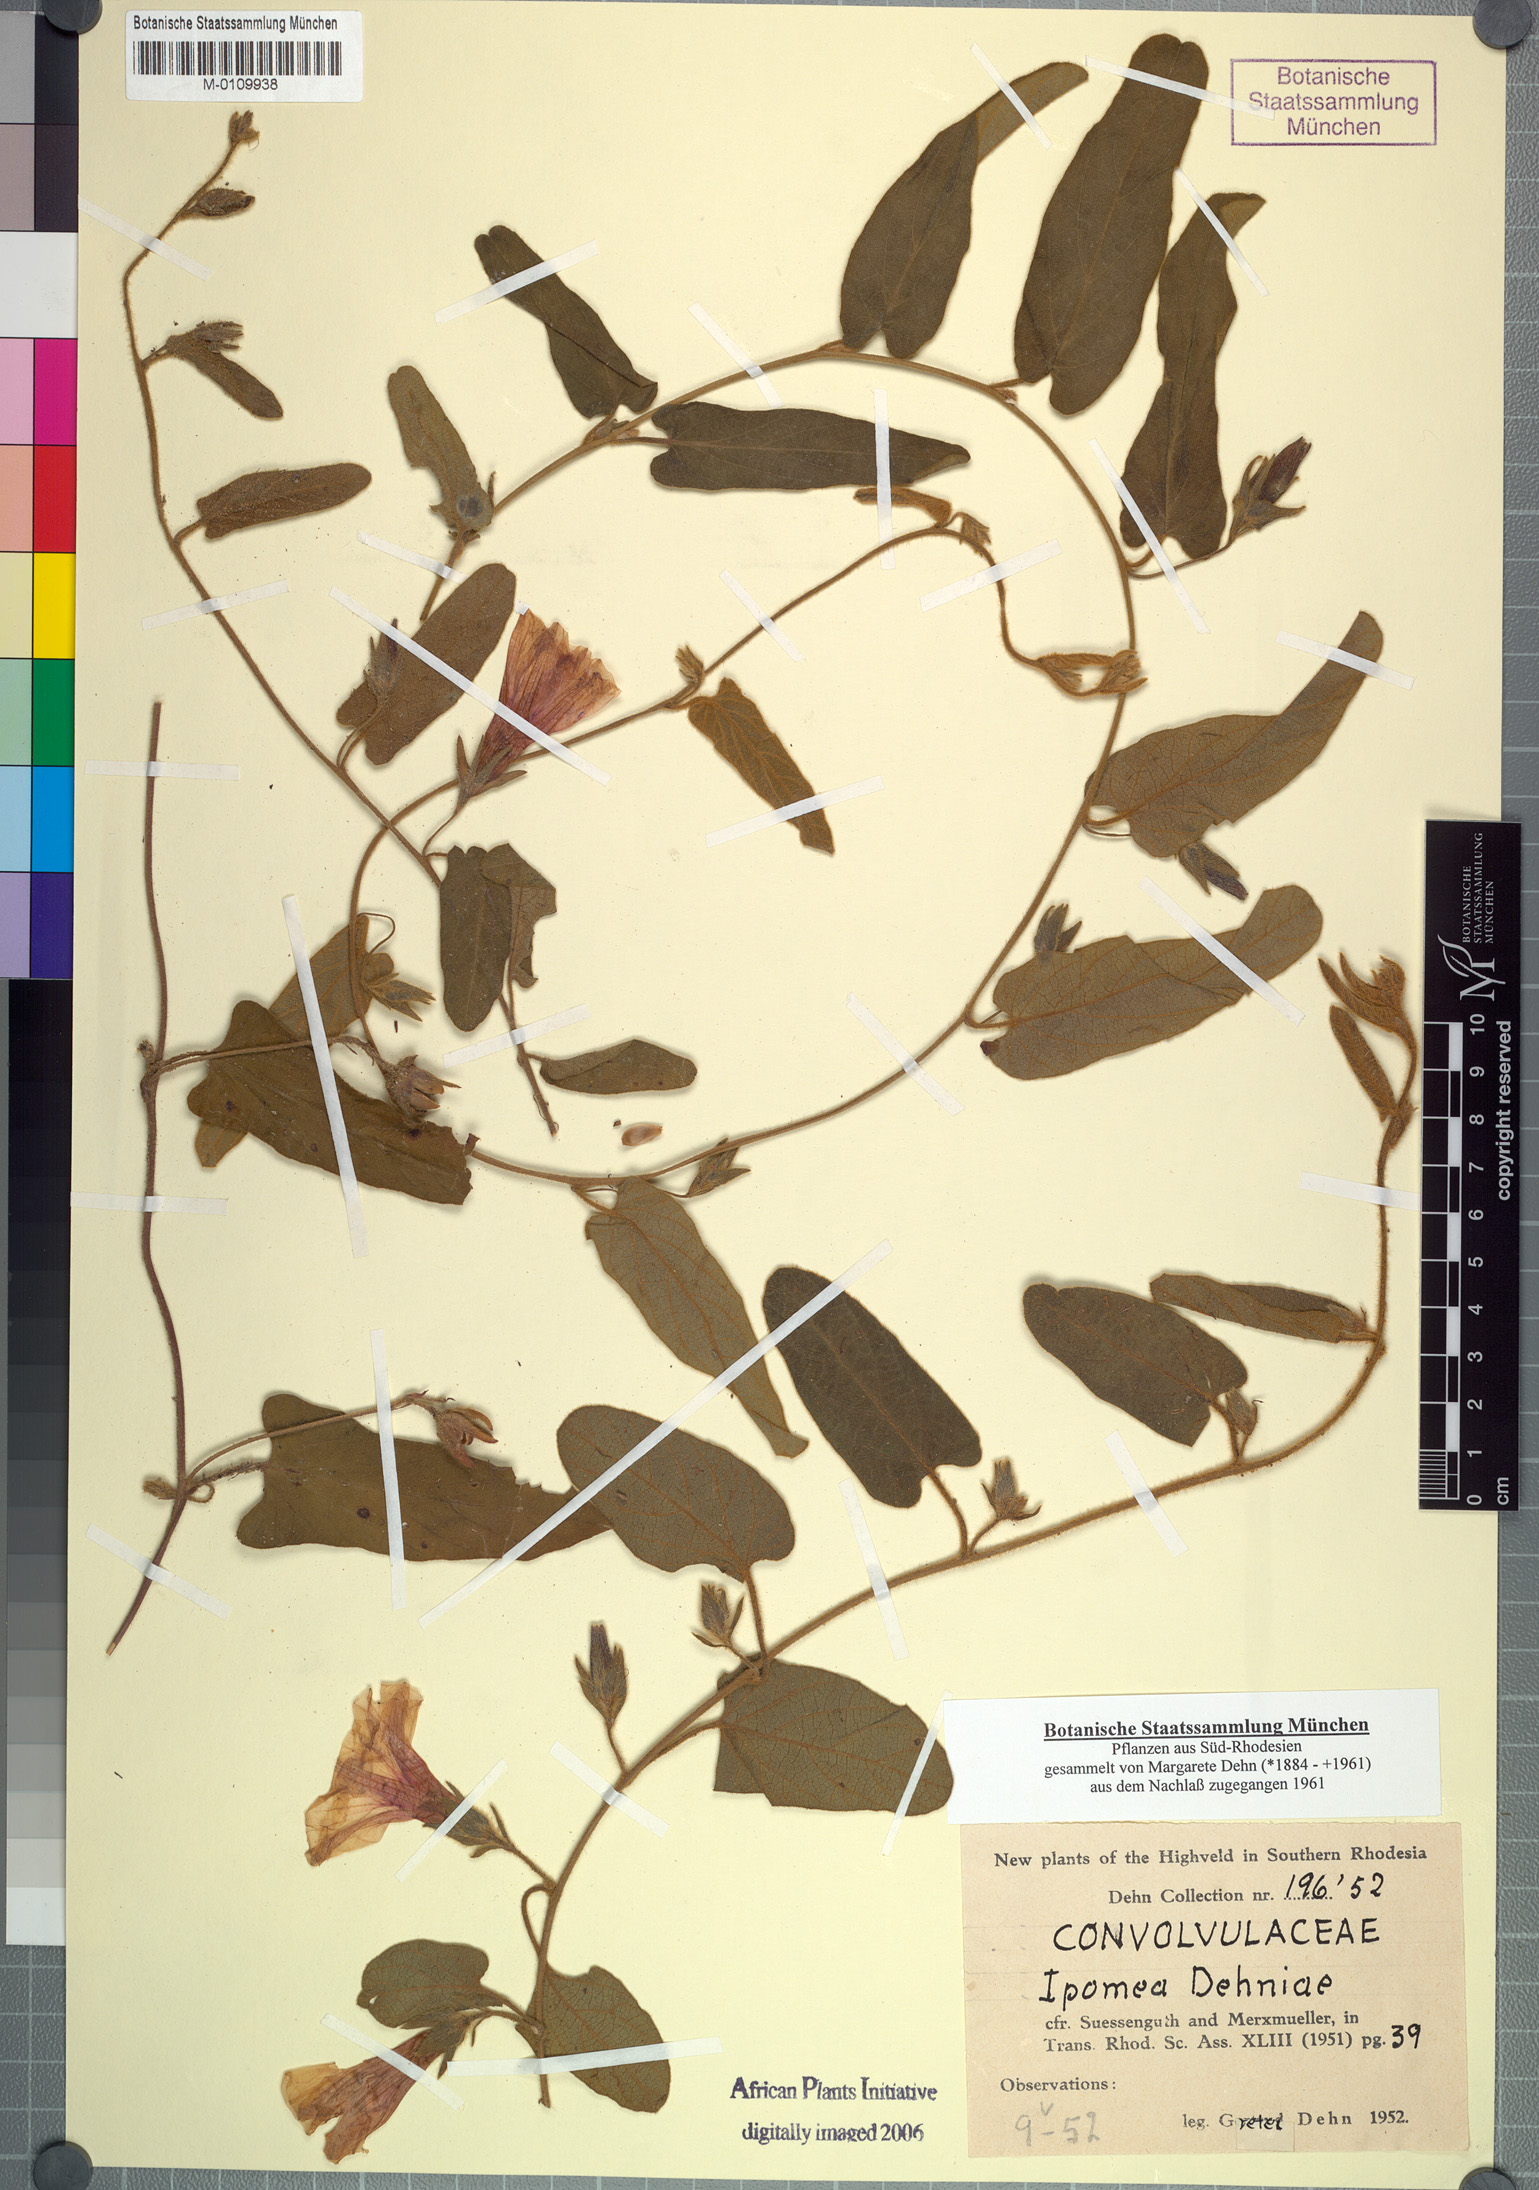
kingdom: Plantae
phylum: Tracheophyta
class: Magnoliopsida
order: Solanales
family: Convolvulaceae
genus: Ipomoea
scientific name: Ipomoea fulvicaulis
